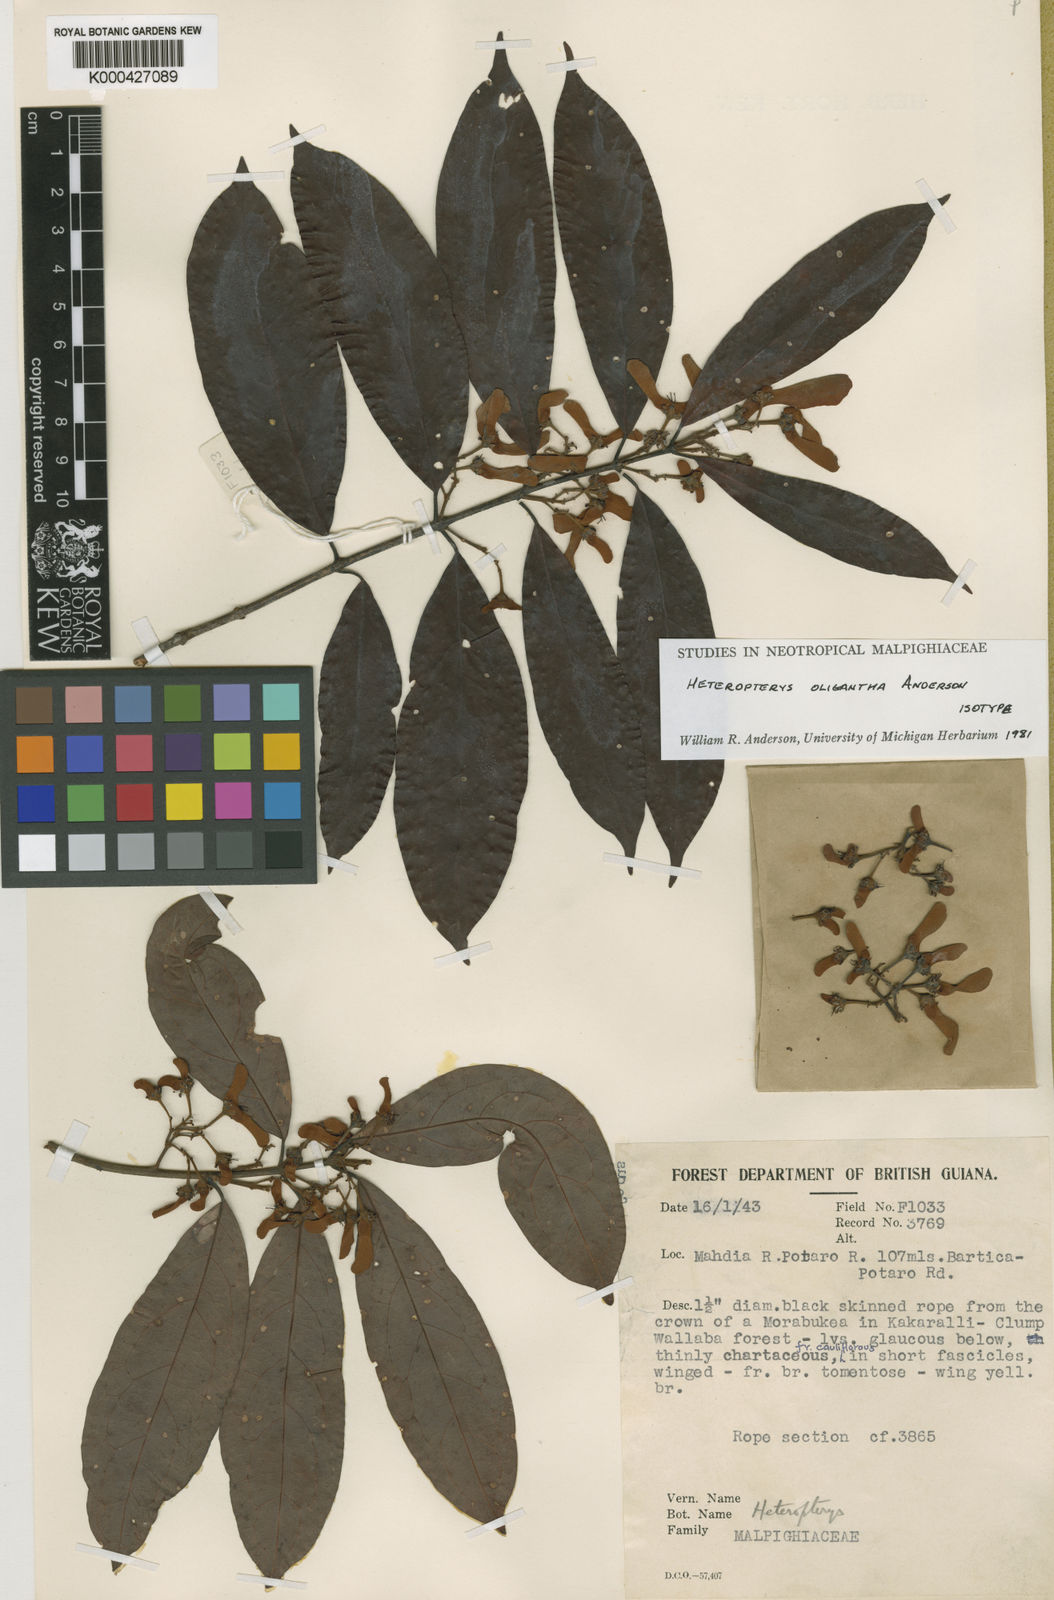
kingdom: Plantae
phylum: Tracheophyta
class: Magnoliopsida
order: Malpighiales
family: Malpighiaceae
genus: Heteropterys
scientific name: Heteropterys oligantha
